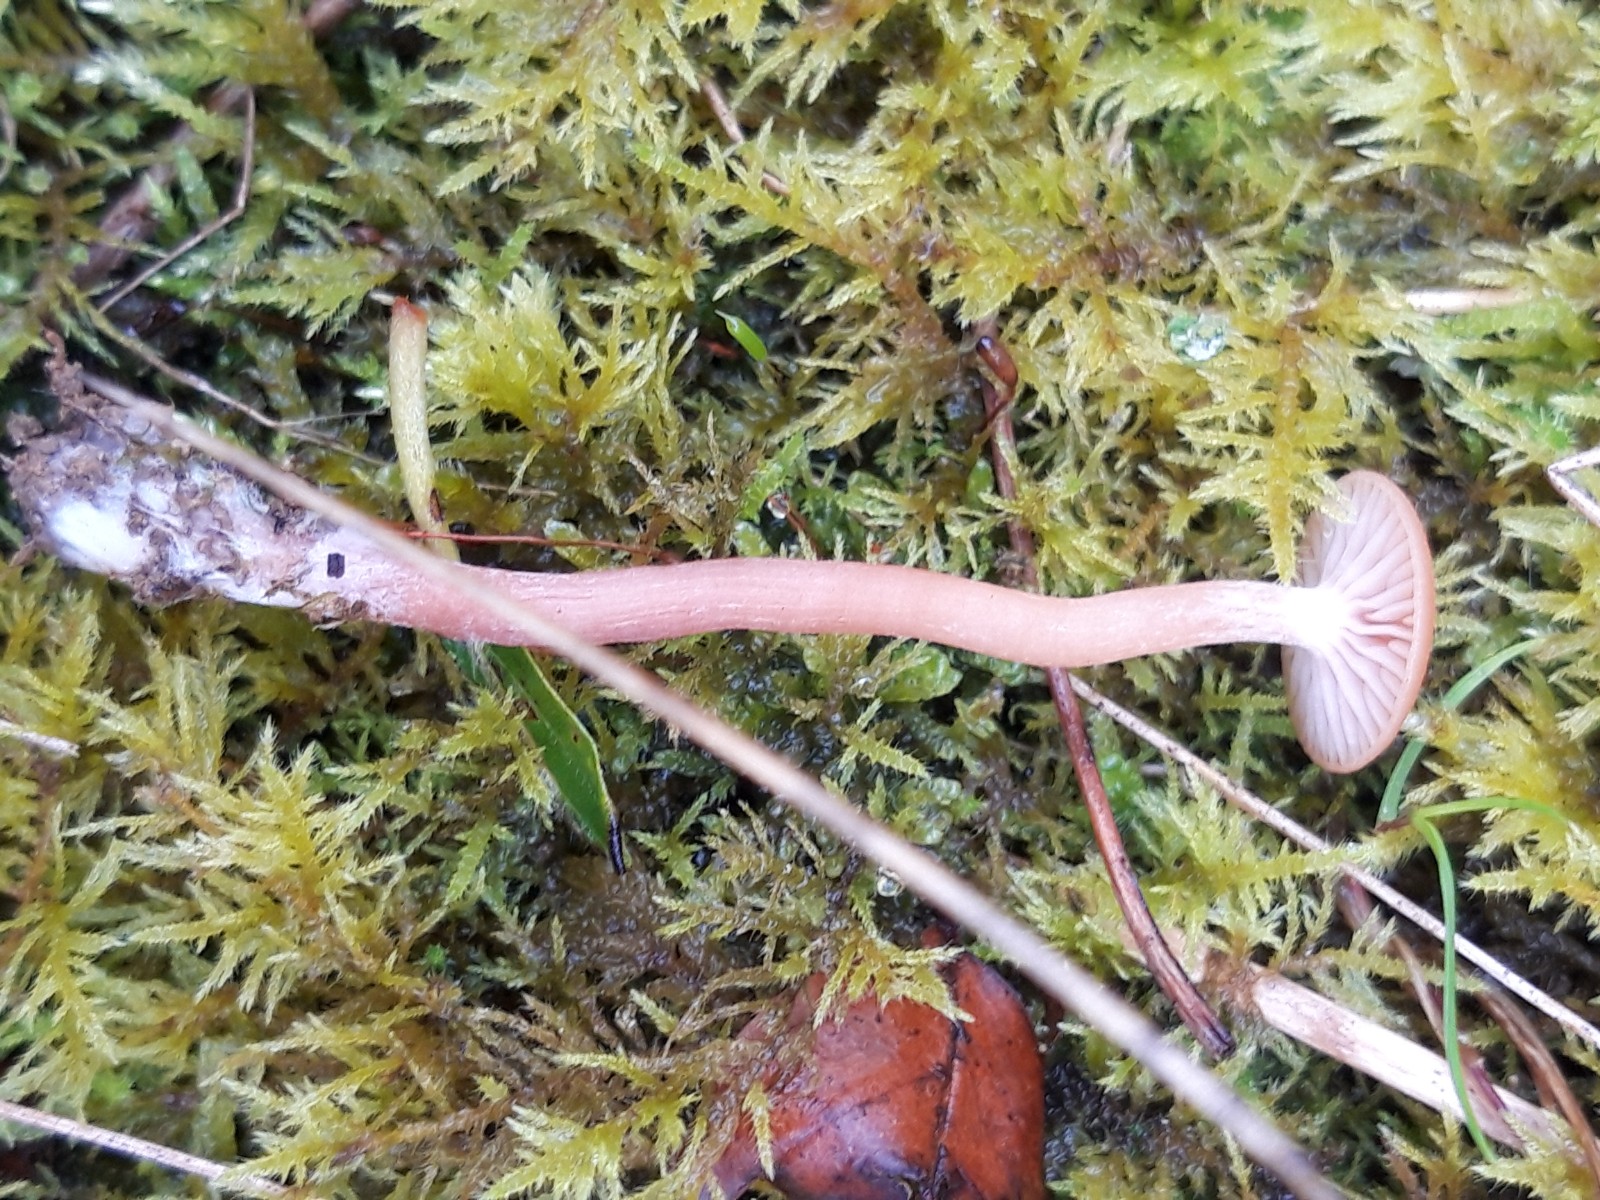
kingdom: Fungi
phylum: Basidiomycota
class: Agaricomycetes
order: Agaricales
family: Hydnangiaceae
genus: Laccaria
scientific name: Laccaria laccata
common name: rød ametysthat
